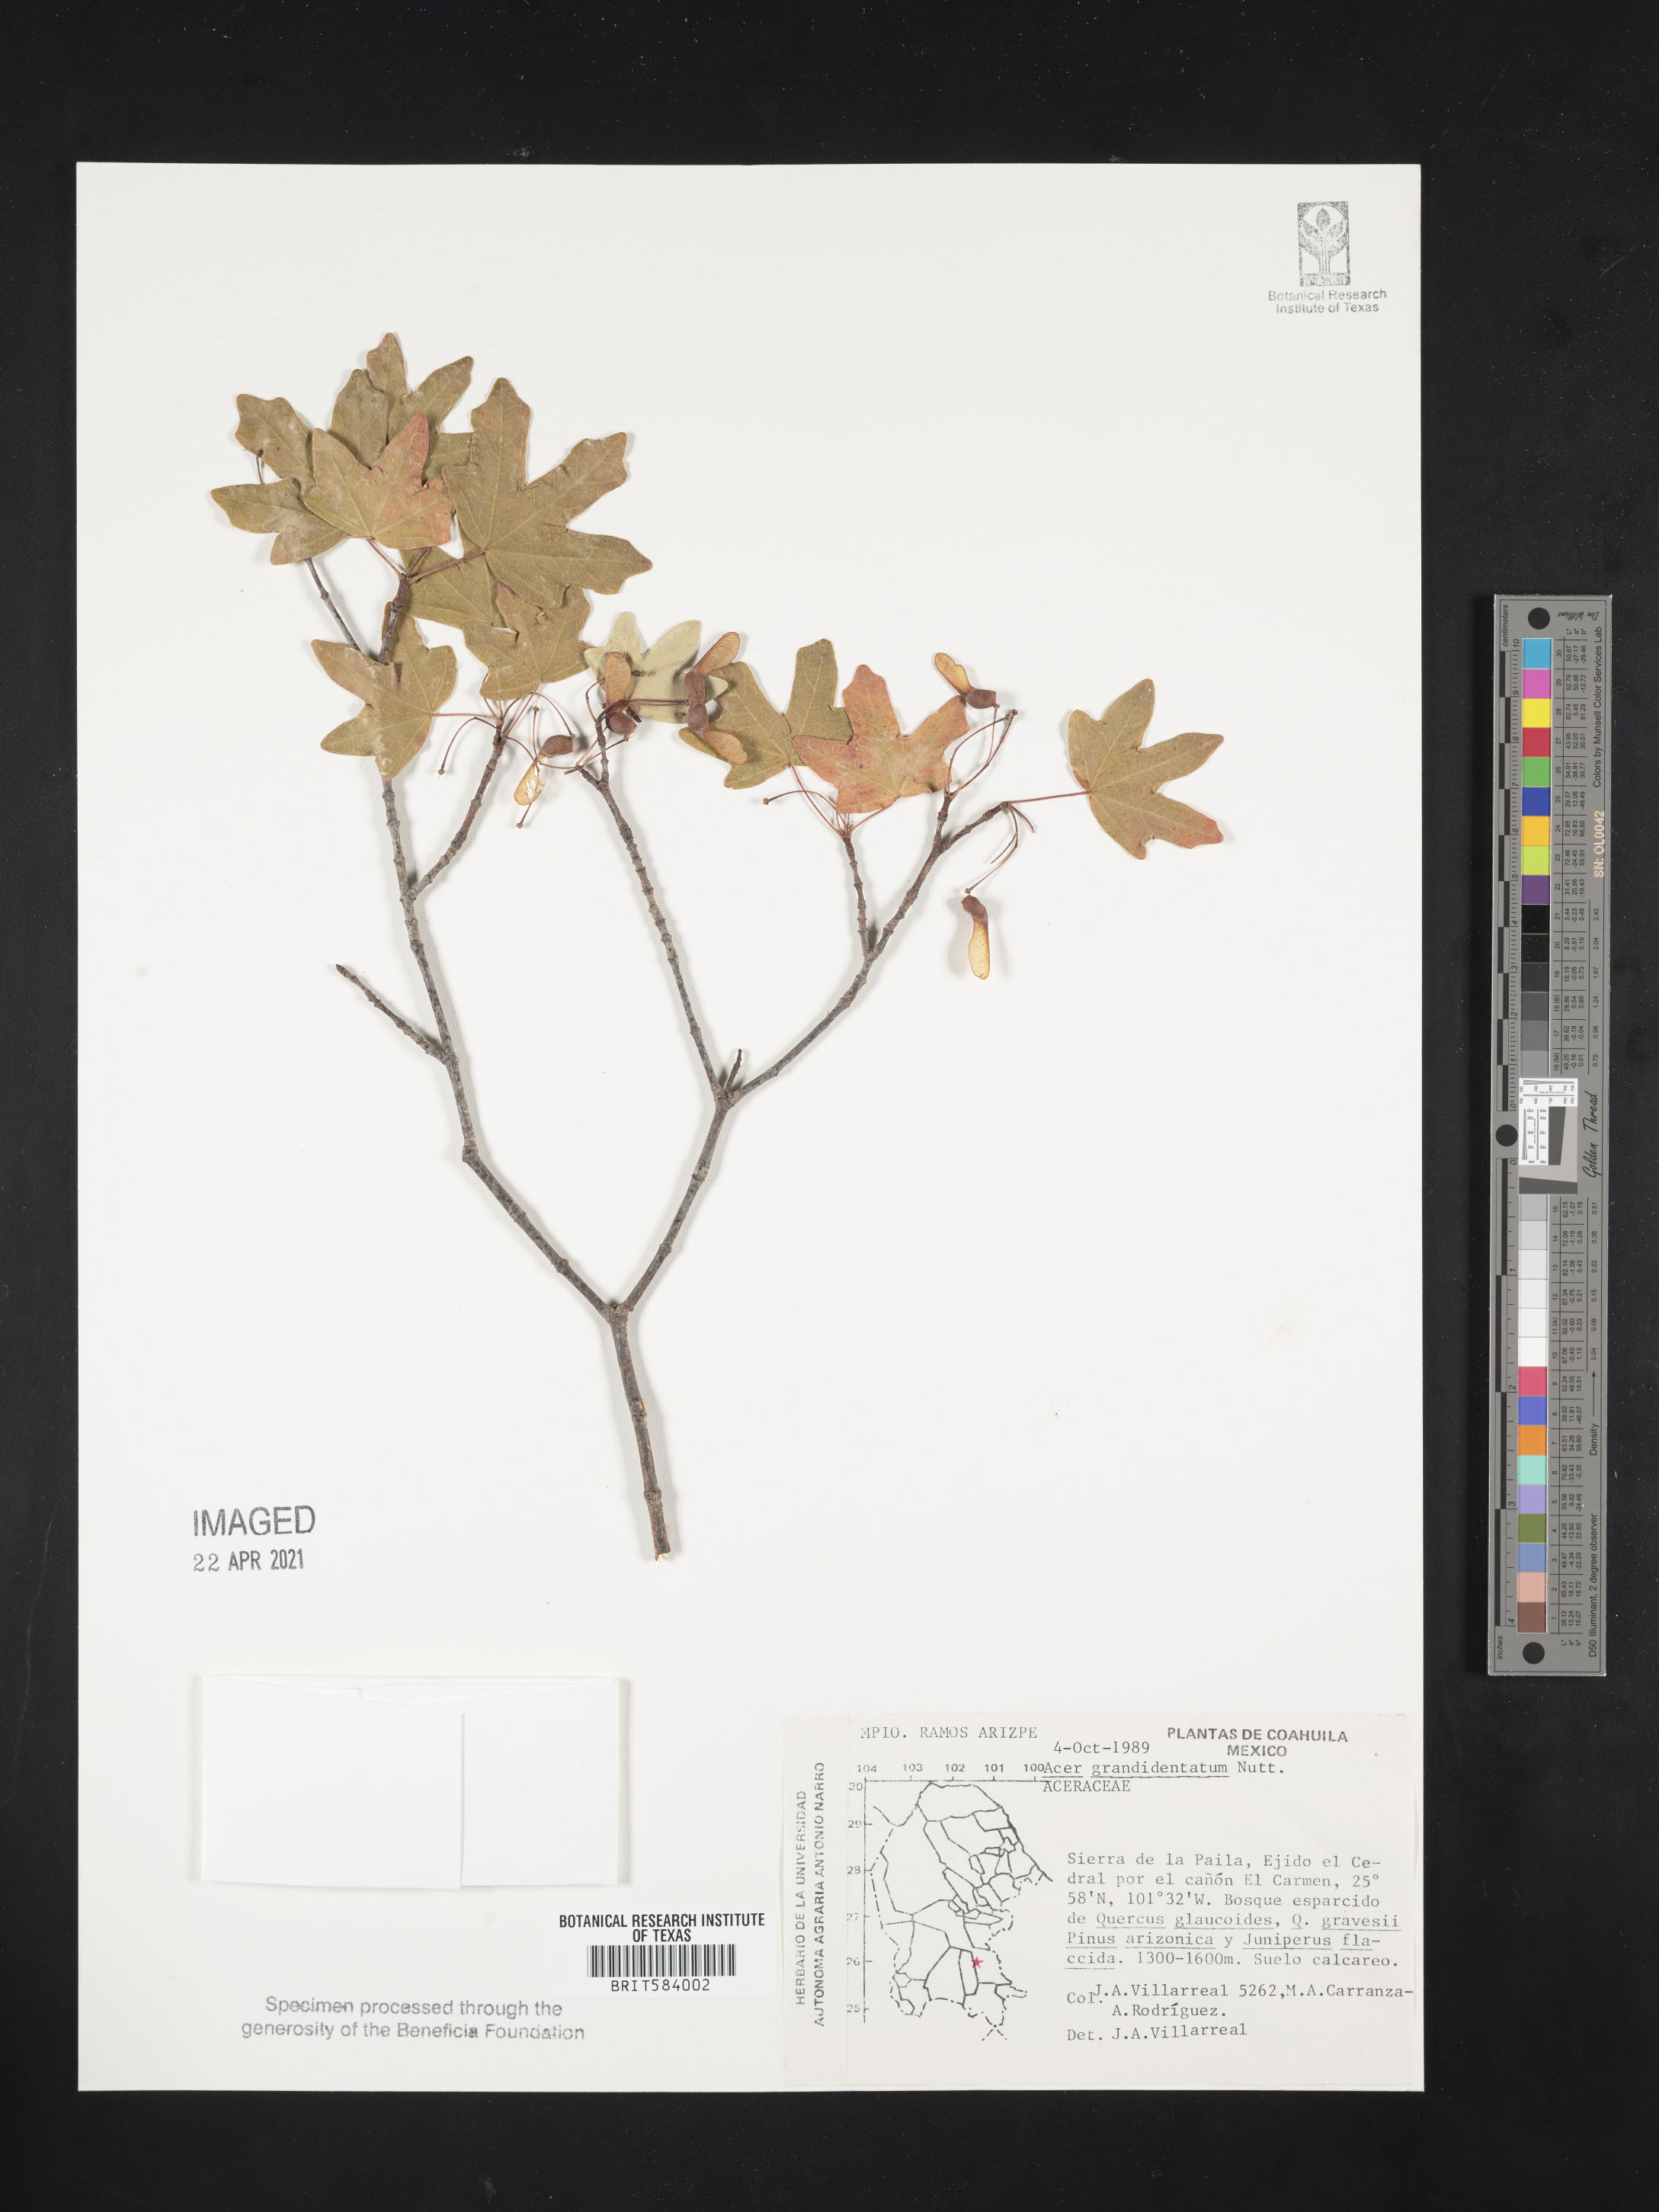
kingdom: Plantae
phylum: Tracheophyta
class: Magnoliopsida
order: Sapindales
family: Sapindaceae
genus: Acer
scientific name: Acer grandidentatum
